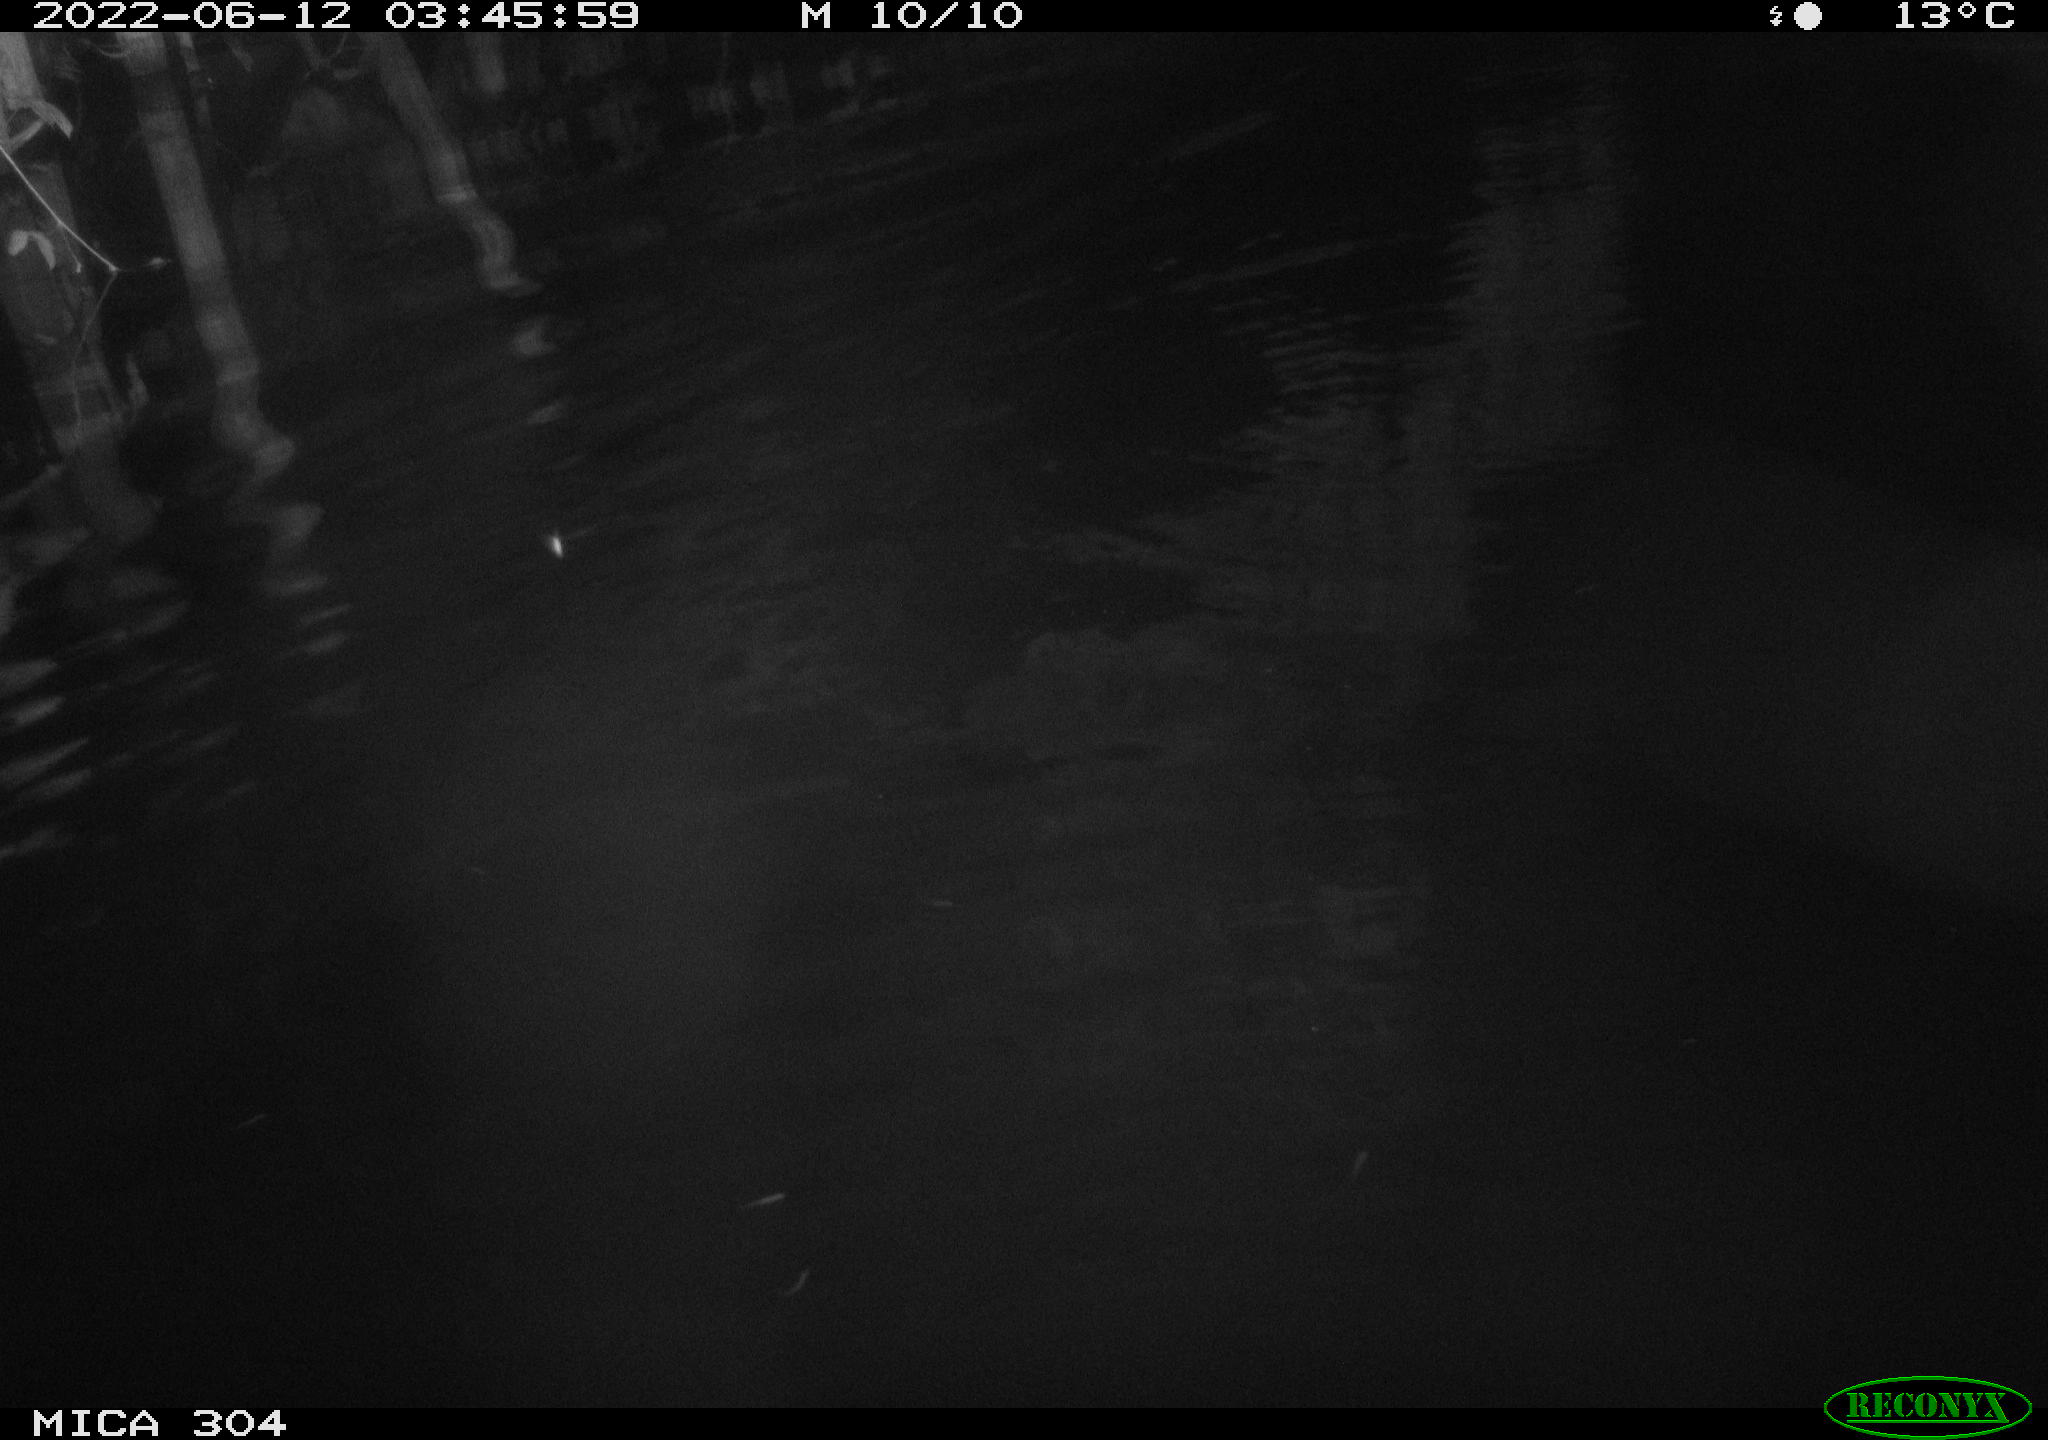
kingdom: Animalia
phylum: Chordata
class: Aves
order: Gruiformes
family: Rallidae
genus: Fulica
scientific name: Fulica atra
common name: Eurasian coot
